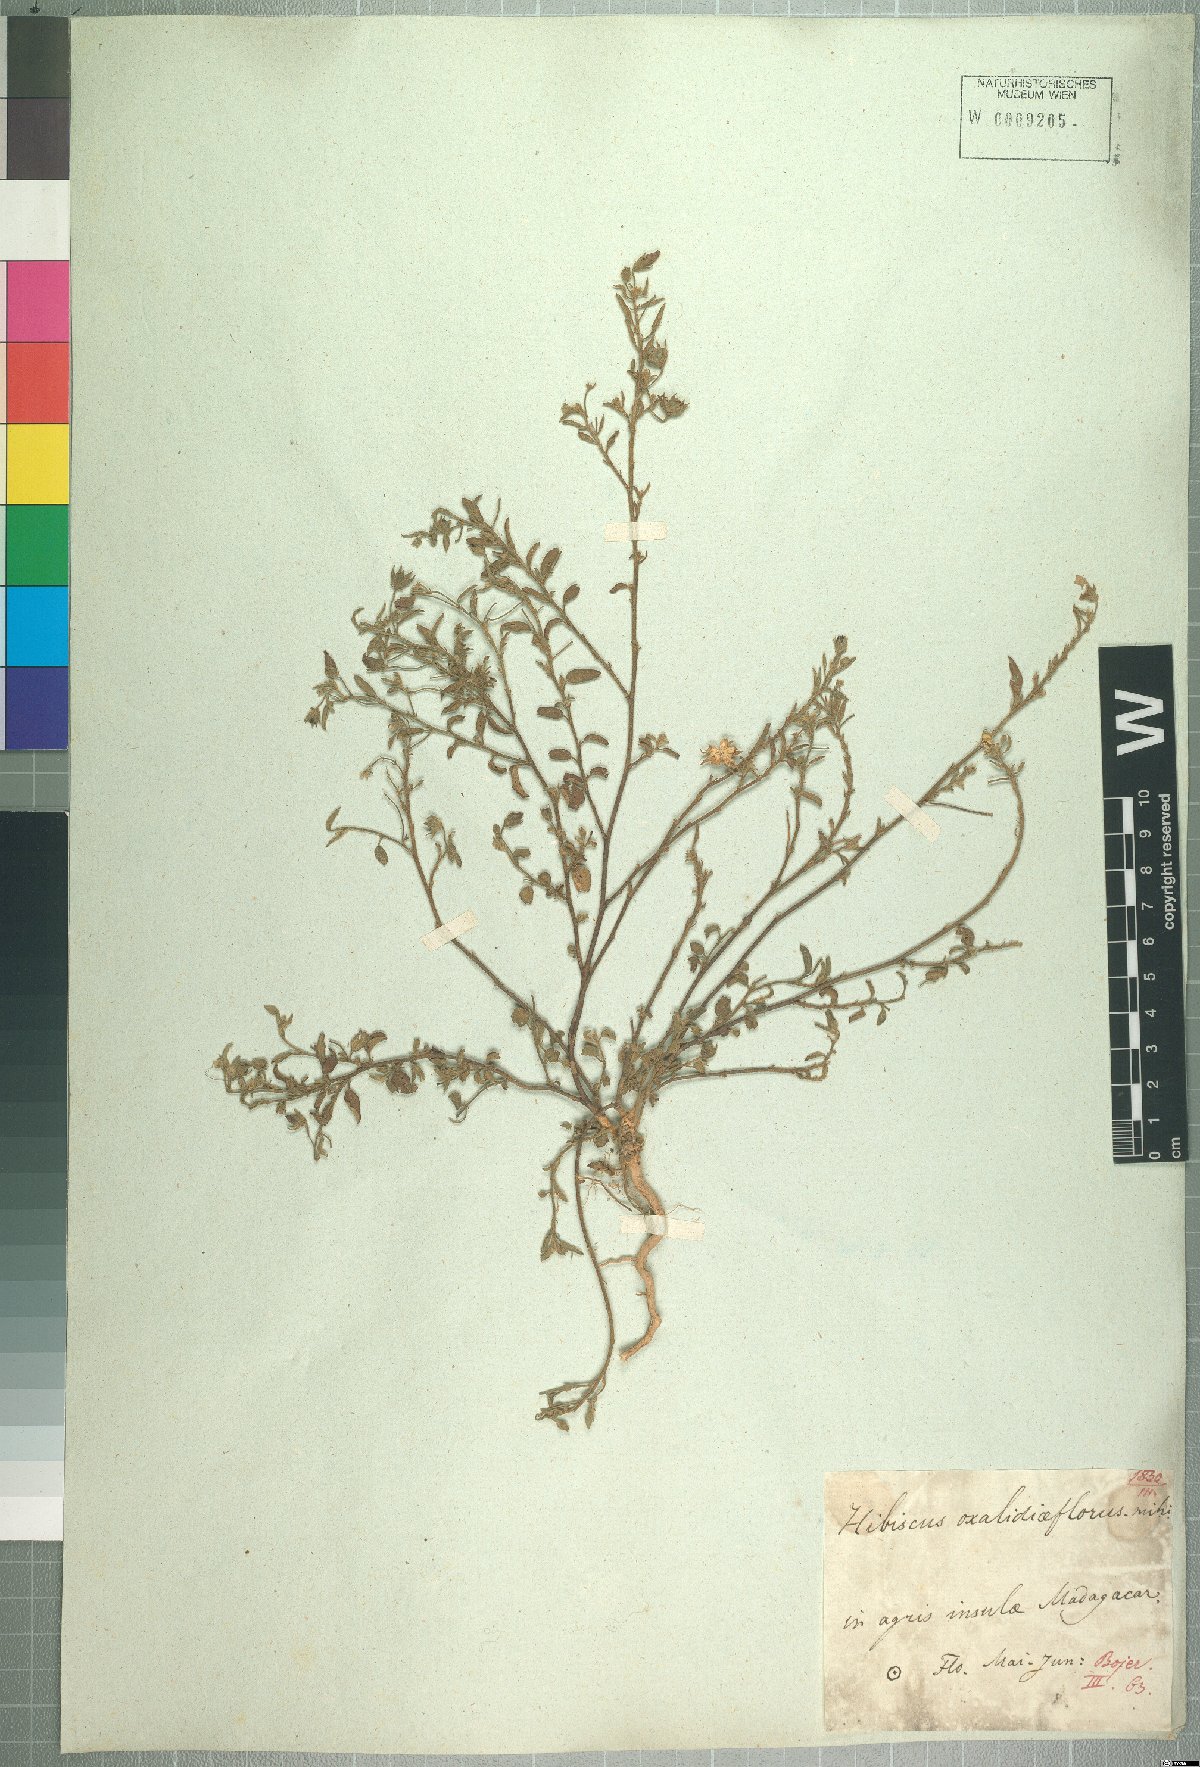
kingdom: Plantae
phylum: Tracheophyta
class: Magnoliopsida
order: Malvales
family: Malvaceae
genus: Hibiscus
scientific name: Hibiscus oxaliflorus
